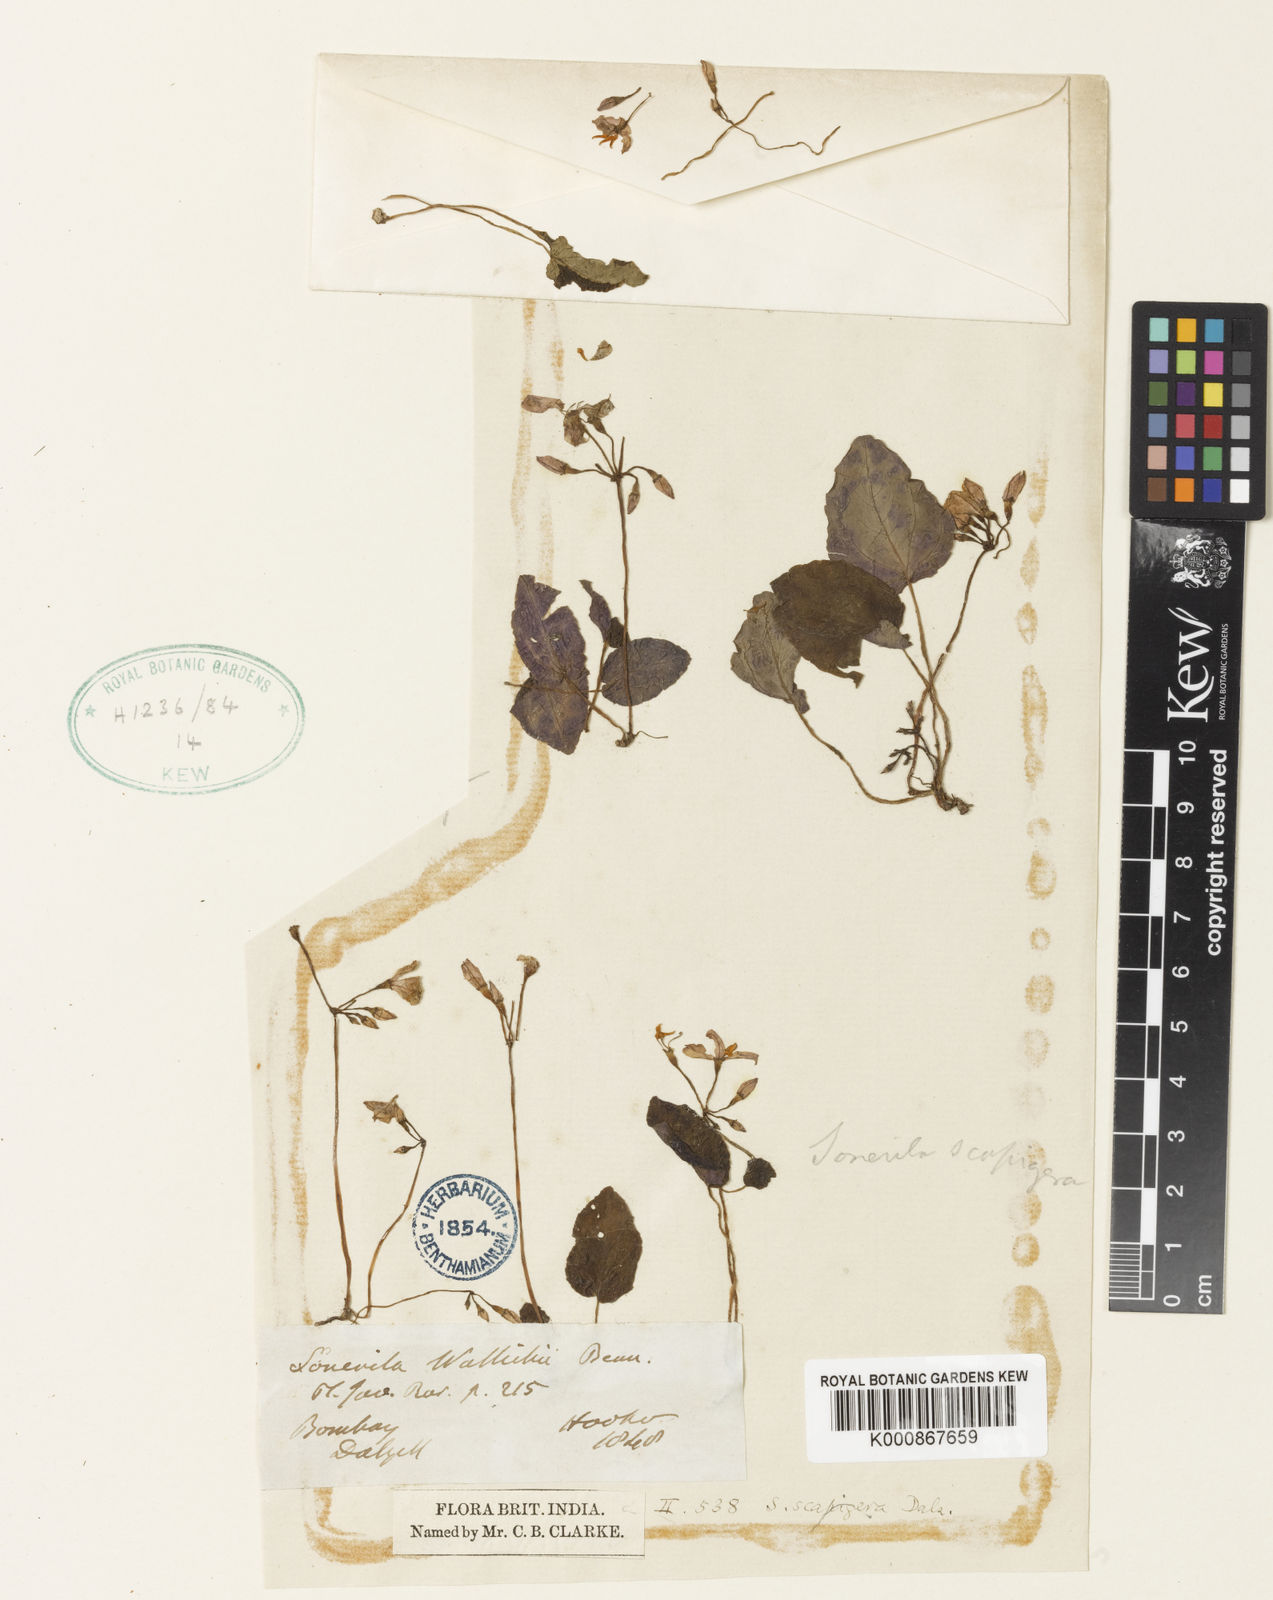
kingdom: Plantae
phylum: Tracheophyta
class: Magnoliopsida
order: Myrtales
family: Melastomataceae
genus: Sonerila
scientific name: Sonerila wallichii
